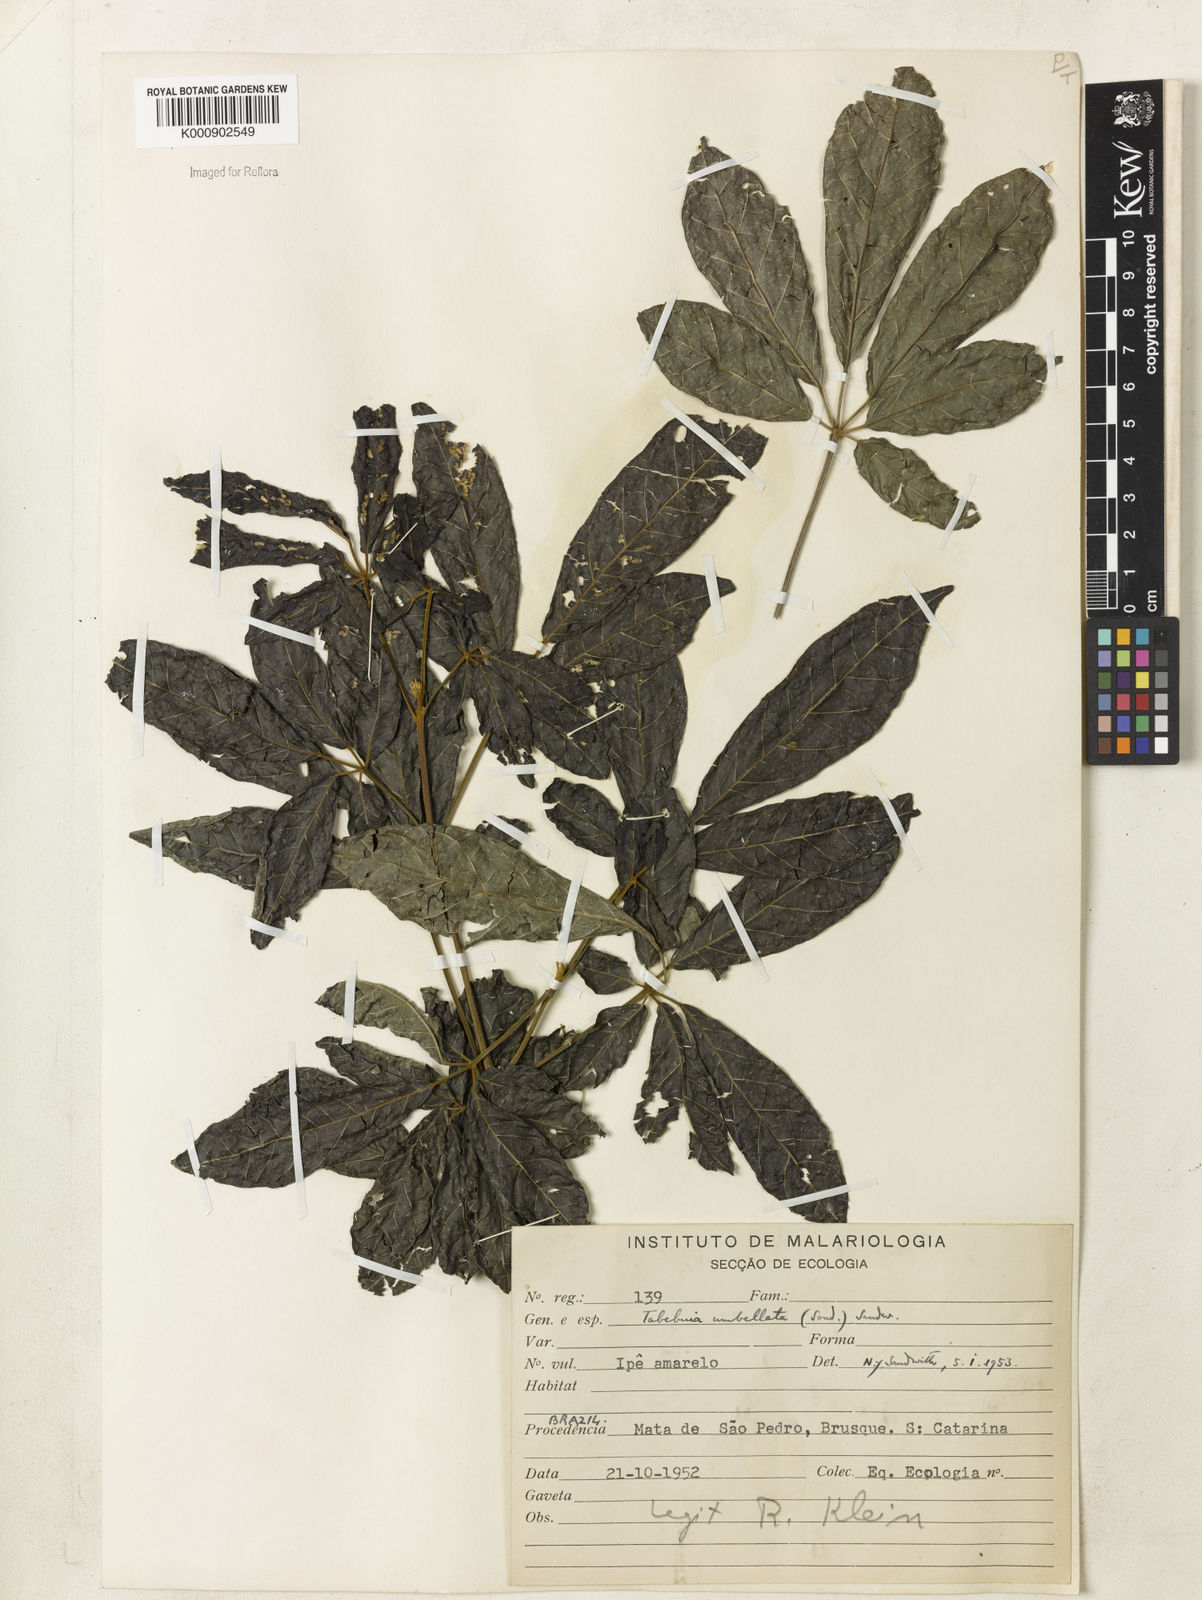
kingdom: Plantae
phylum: Tracheophyta
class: Magnoliopsida
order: Lamiales
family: Bignoniaceae
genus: Handroanthus
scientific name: Handroanthus umbellatus
